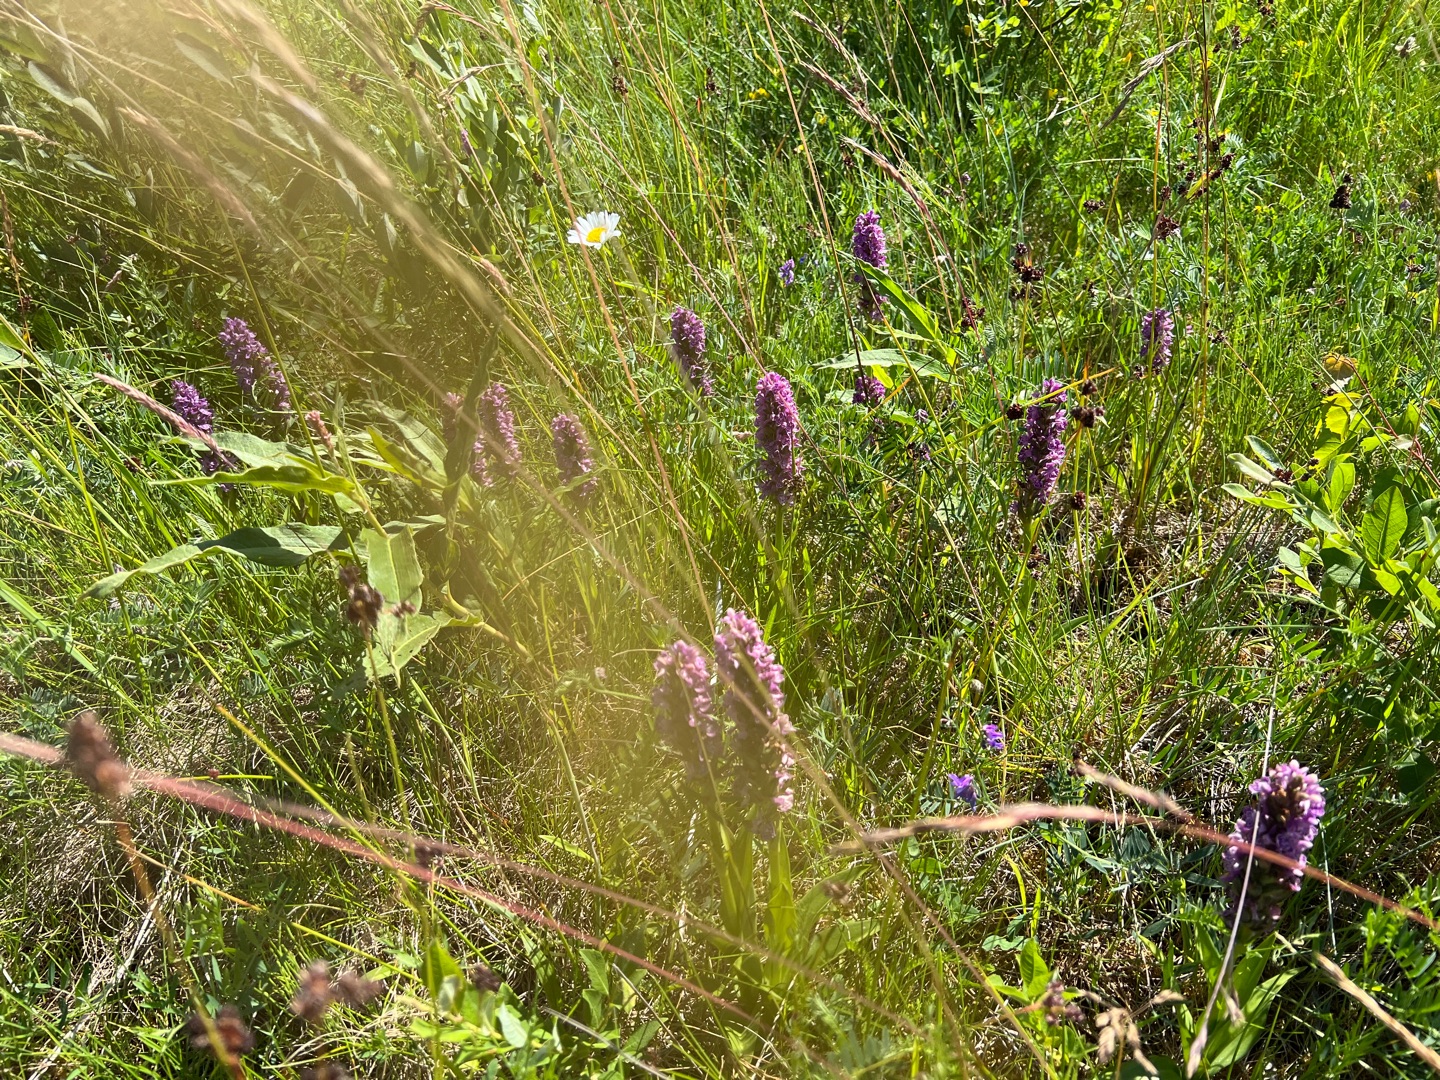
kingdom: Plantae
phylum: Tracheophyta
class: Liliopsida
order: Asparagales
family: Orchidaceae
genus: Dactylorhiza
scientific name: Dactylorhiza majalis
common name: Purpur-gøgeurt
